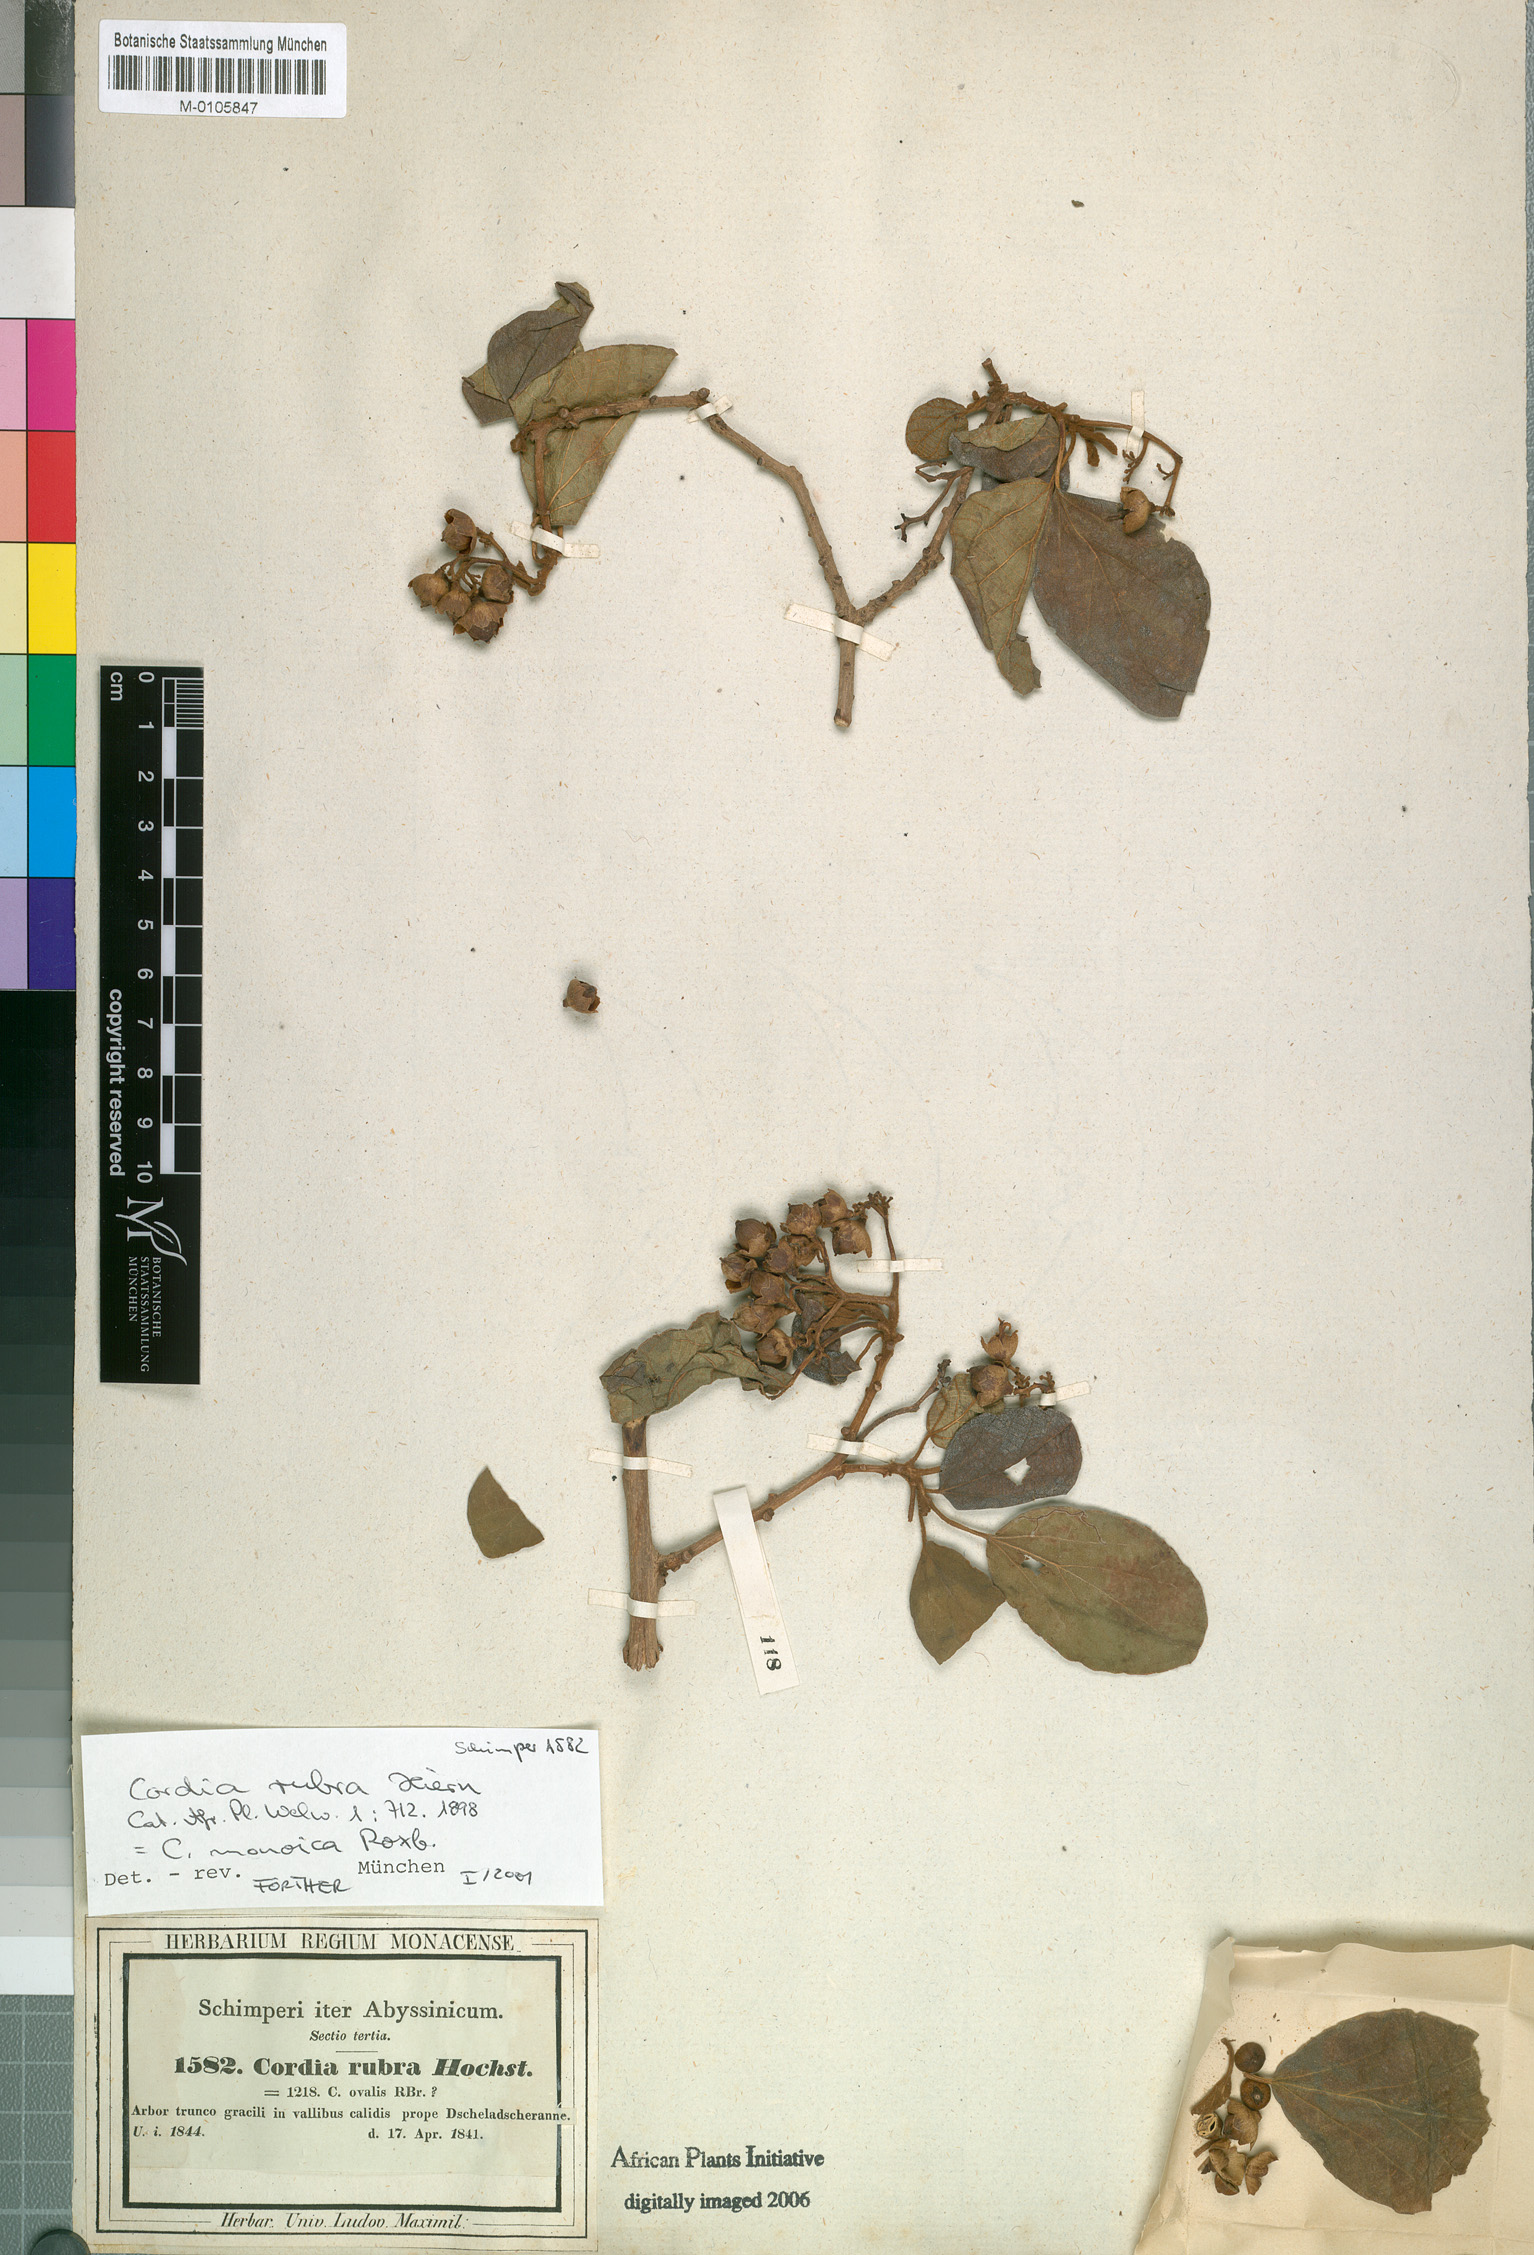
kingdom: Plantae
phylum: Tracheophyta
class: Magnoliopsida
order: Boraginales
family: Cordiaceae
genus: Cordia
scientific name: Cordia monoica
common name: Snot berry
